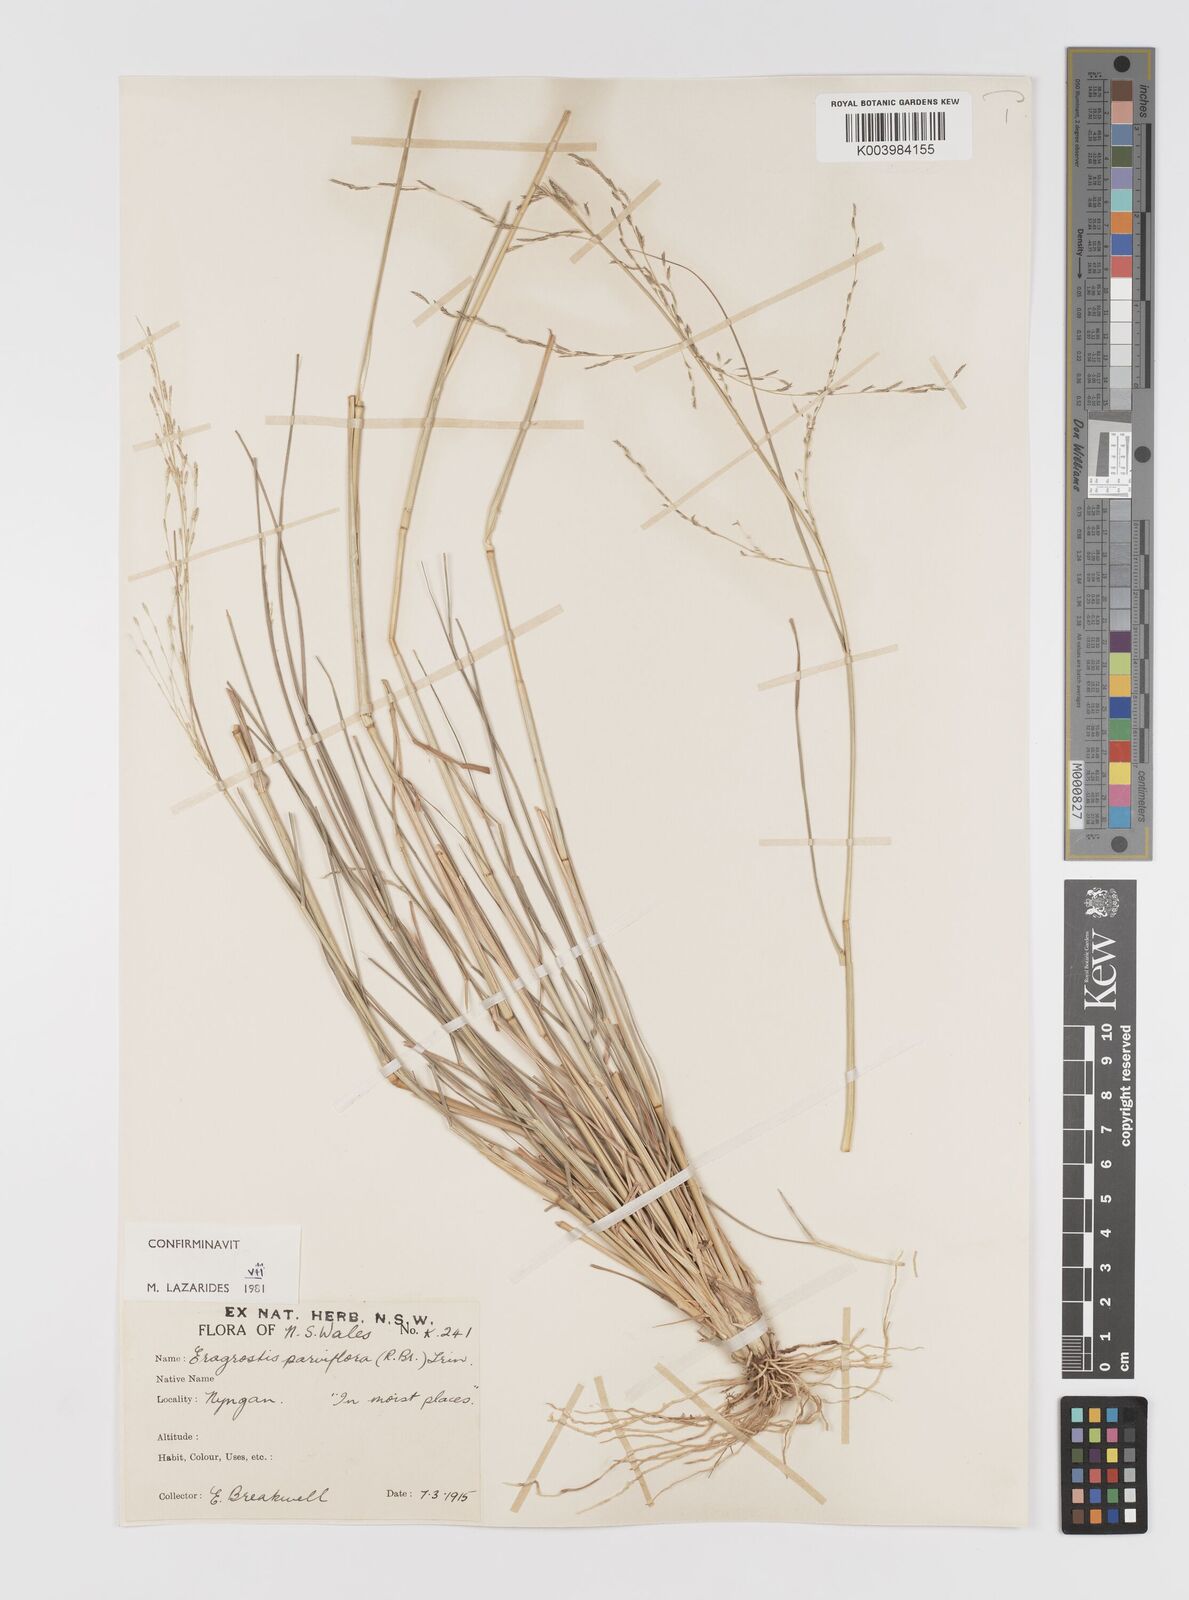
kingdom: Plantae
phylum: Tracheophyta
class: Liliopsida
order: Poales
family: Poaceae
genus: Eragrostis
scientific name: Eragrostis parviflora
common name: Weeping love-grass
